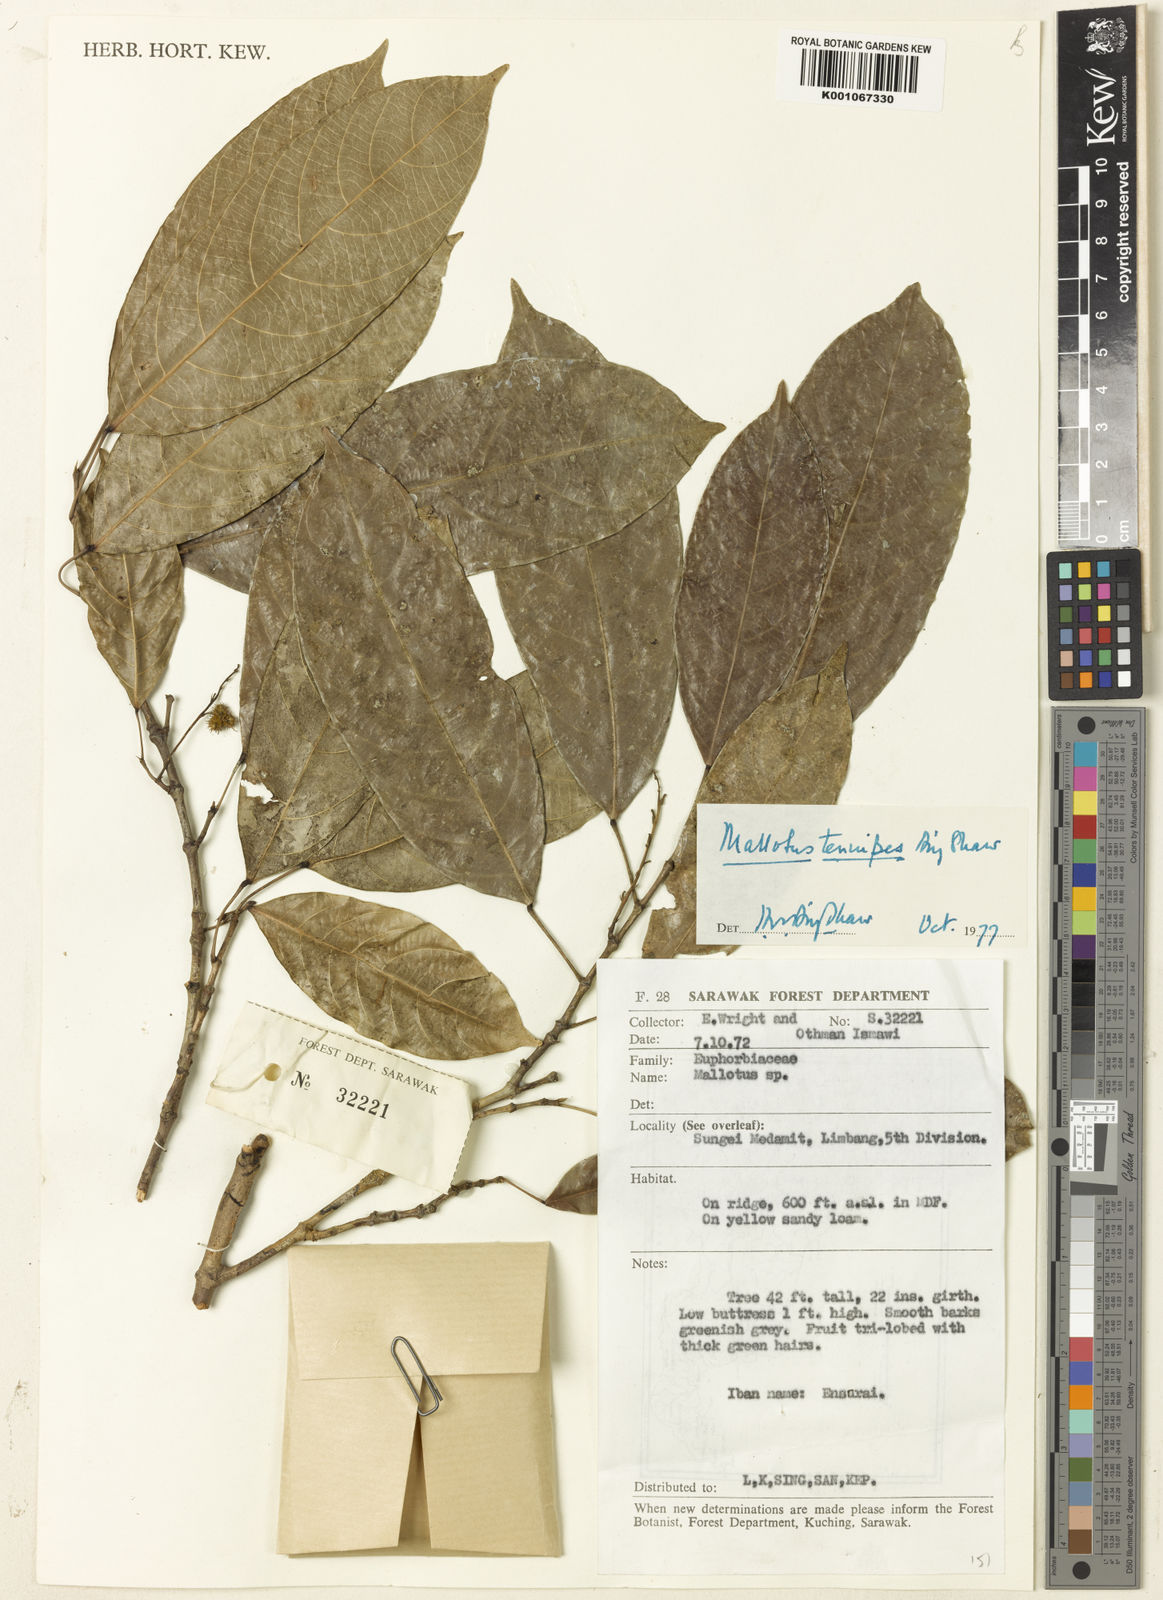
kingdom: Plantae
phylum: Tracheophyta
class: Magnoliopsida
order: Malpighiales
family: Euphorbiaceae
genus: Hancea
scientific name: Hancea penangensis
